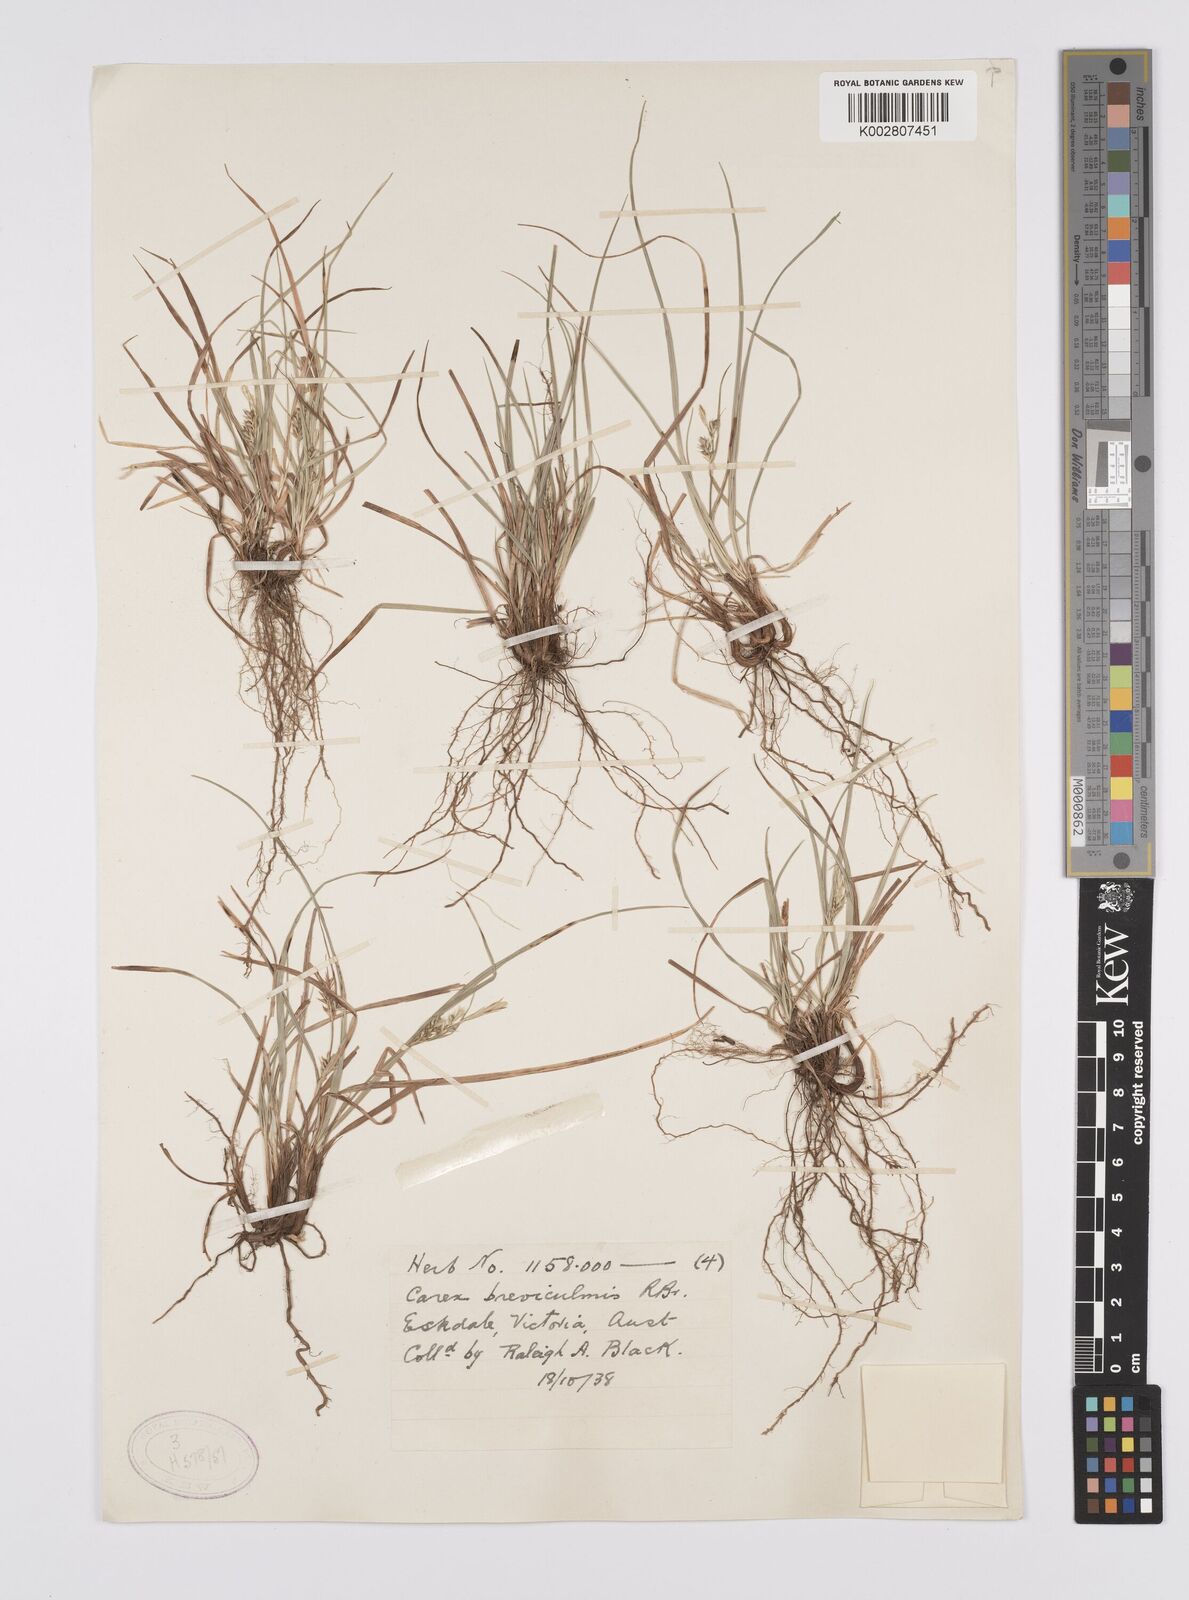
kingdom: Plantae
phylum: Tracheophyta
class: Liliopsida
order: Poales
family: Cyperaceae
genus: Carex
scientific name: Carex breviculmis
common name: Asian shortstem sedge
